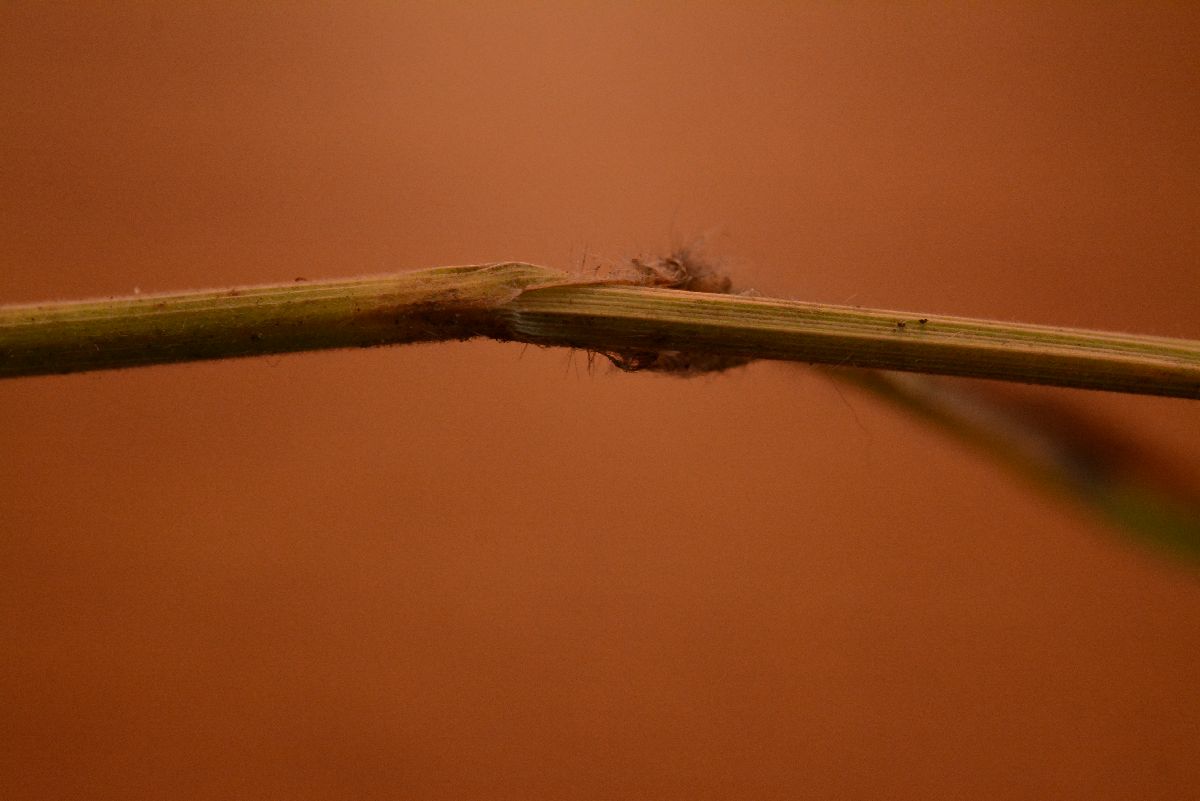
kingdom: Plantae
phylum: Tracheophyta
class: Liliopsida
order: Poales
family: Poaceae
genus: Bromus
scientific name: Bromus benekenii
